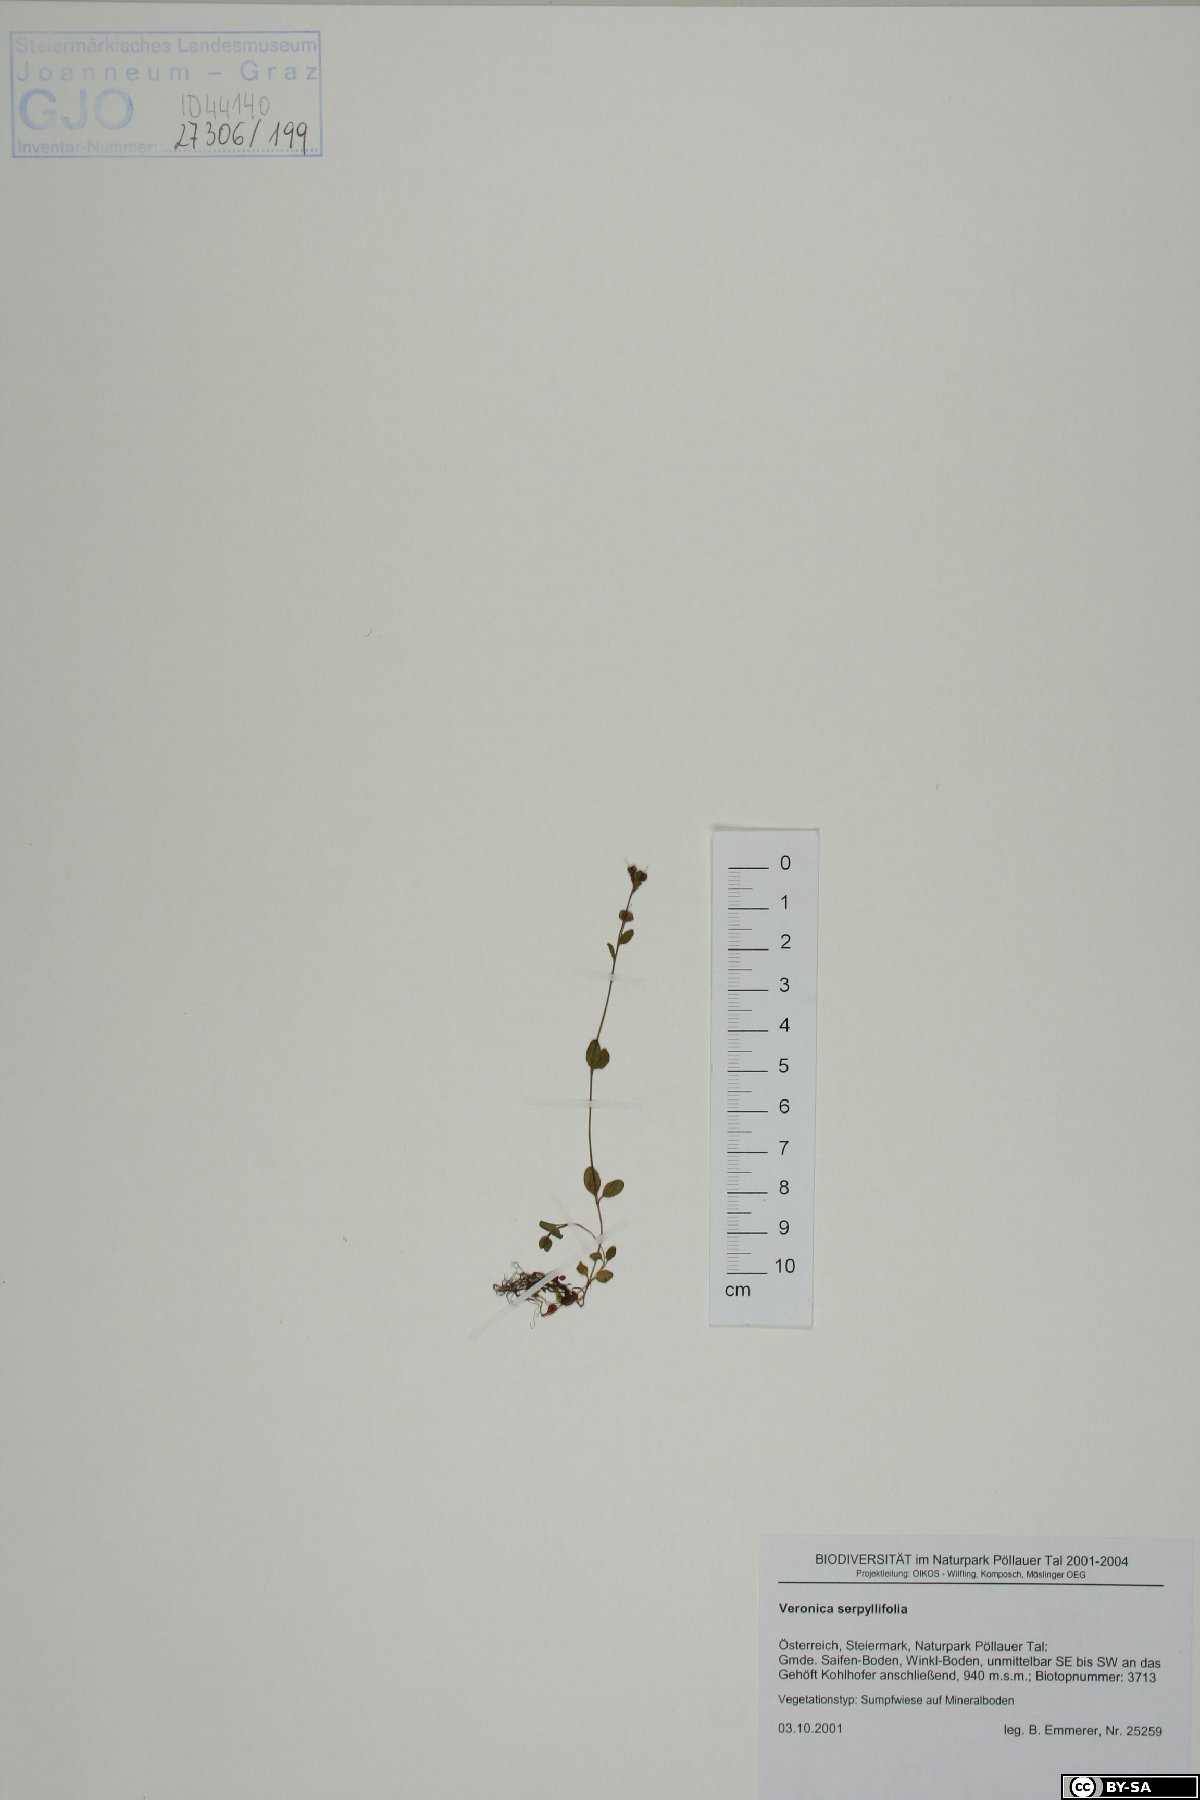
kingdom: Plantae
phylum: Tracheophyta
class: Magnoliopsida
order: Lamiales
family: Plantaginaceae
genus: Veronica
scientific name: Veronica serpyllifolia
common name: Thyme-leaved speedwell
